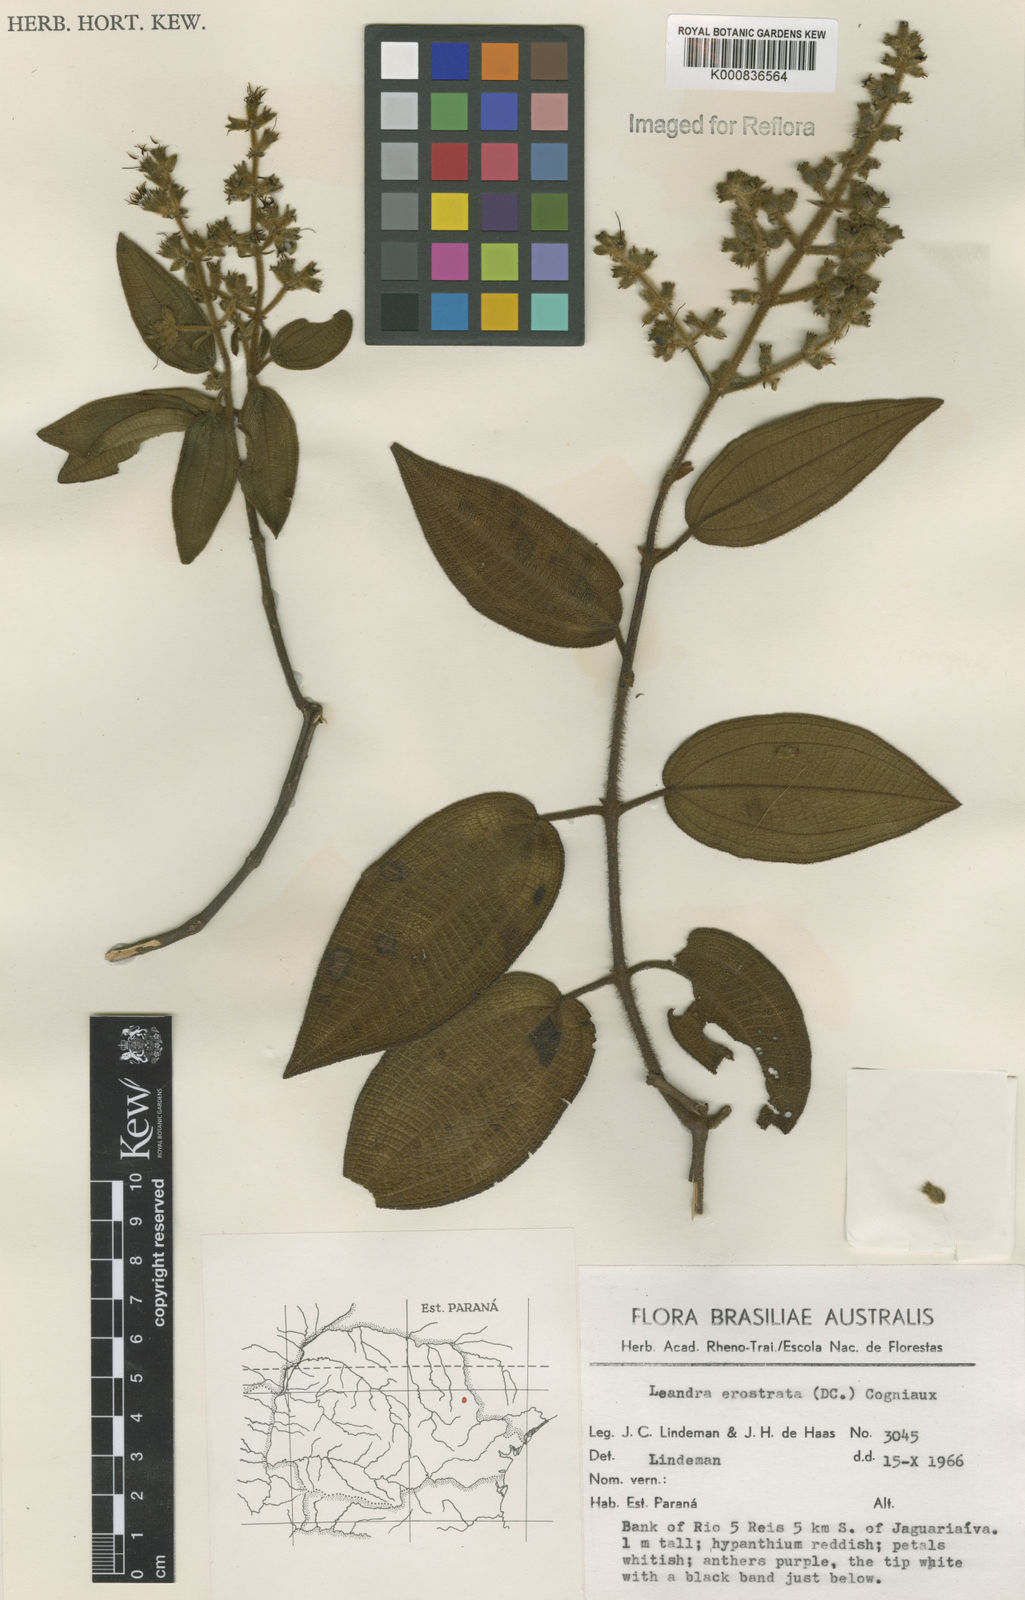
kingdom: Plantae
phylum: Tracheophyta
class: Magnoliopsida
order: Myrtales
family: Melastomataceae
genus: Miconia
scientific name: Miconia erostrata
